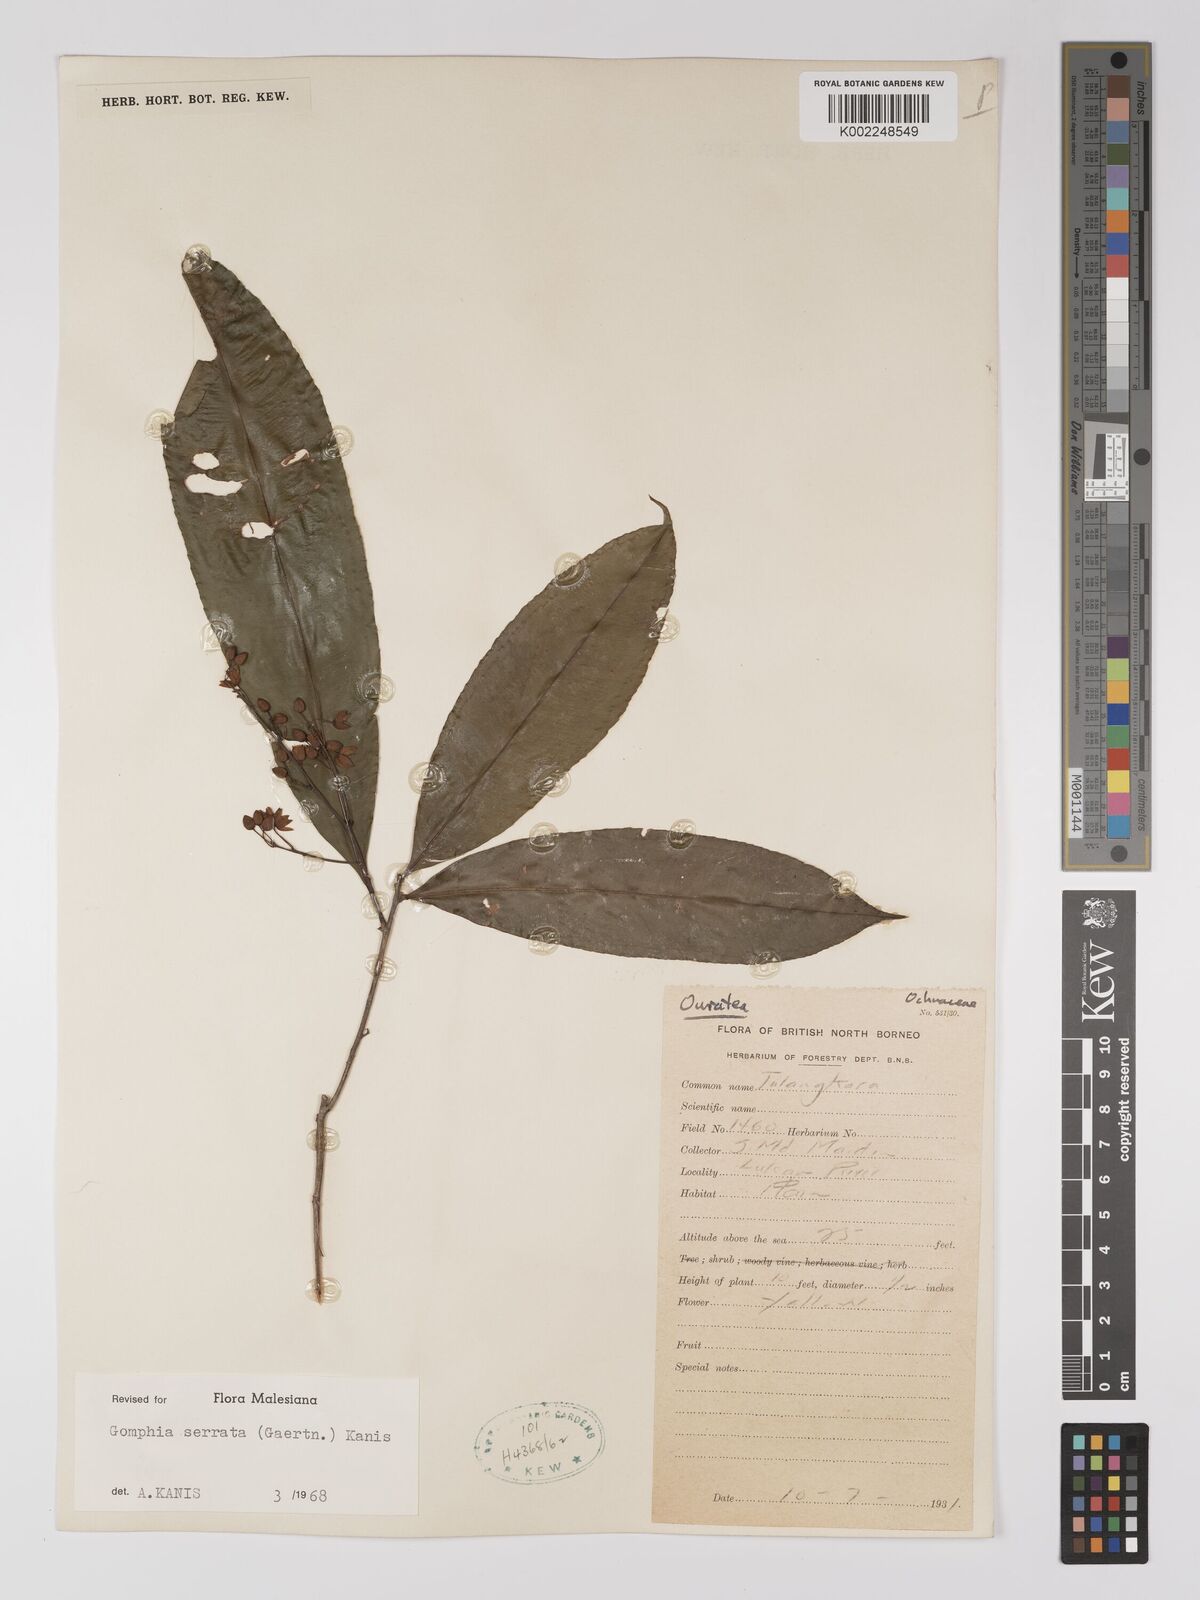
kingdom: Plantae
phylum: Tracheophyta
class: Magnoliopsida
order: Malpighiales
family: Ochnaceae
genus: Gomphia
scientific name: Gomphia serrata
